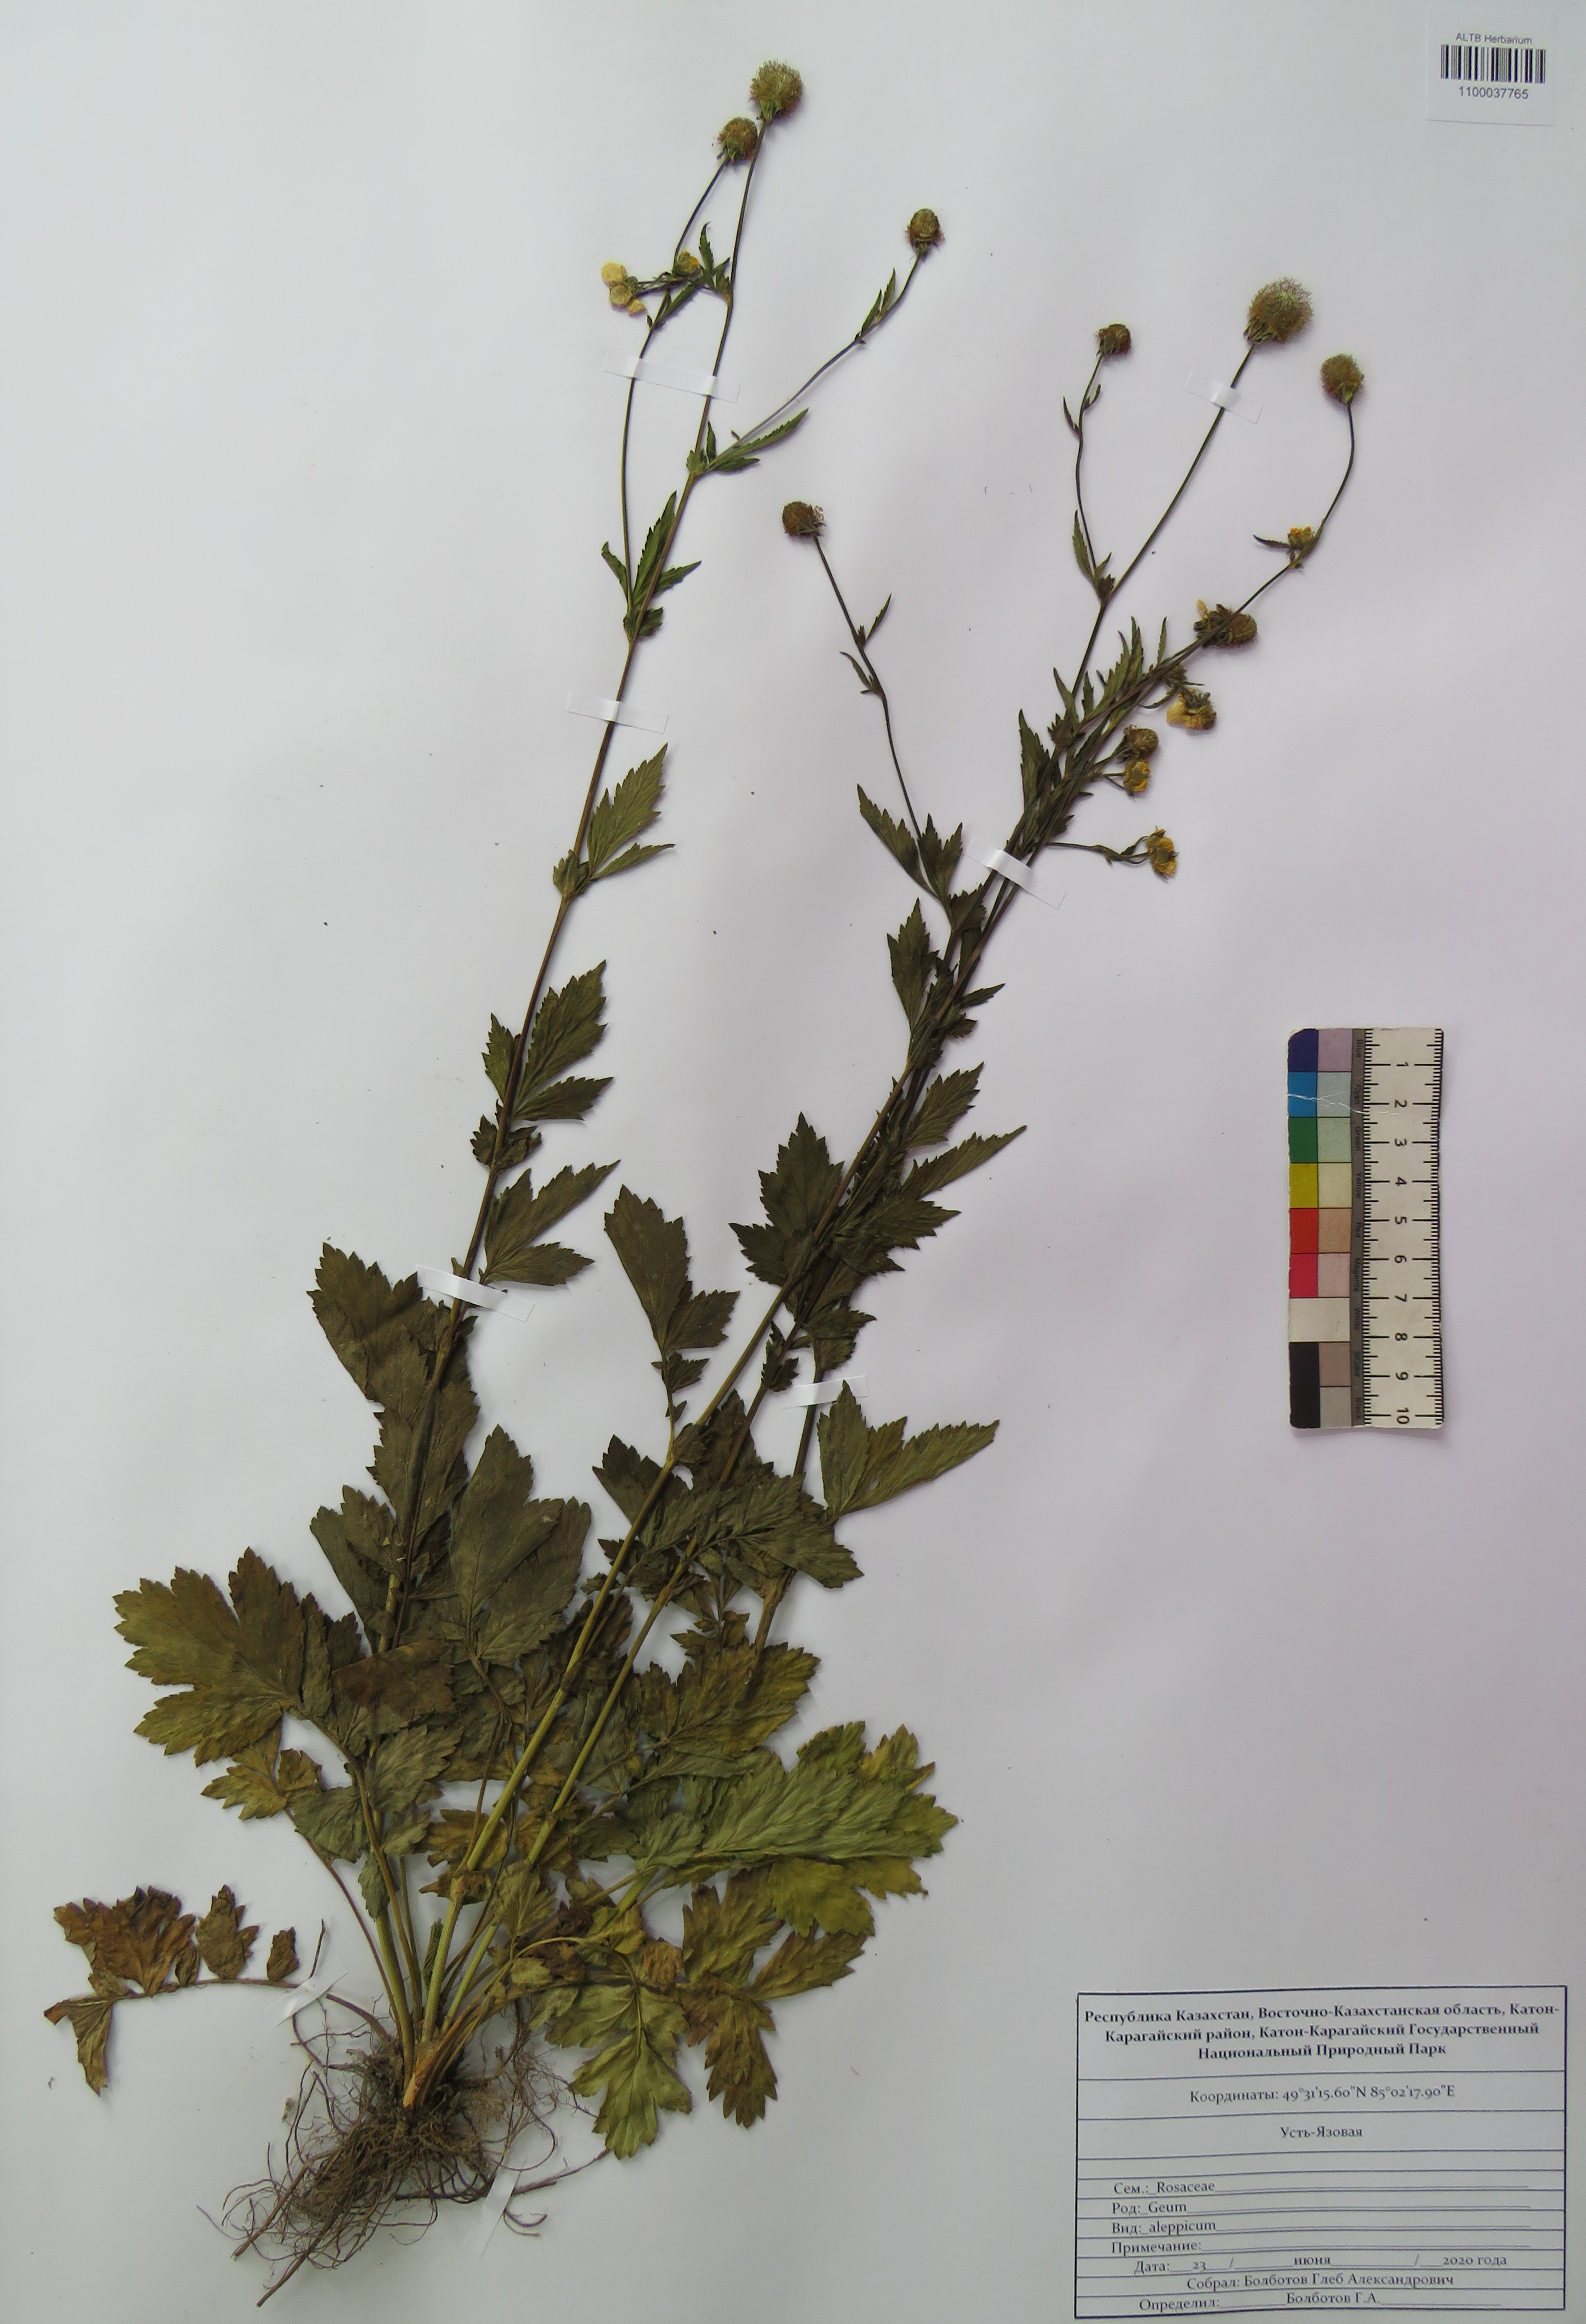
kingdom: Plantae
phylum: Tracheophyta
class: Magnoliopsida
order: Rosales
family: Rosaceae
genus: Geum
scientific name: Geum aleppicum
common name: Yellow avens
